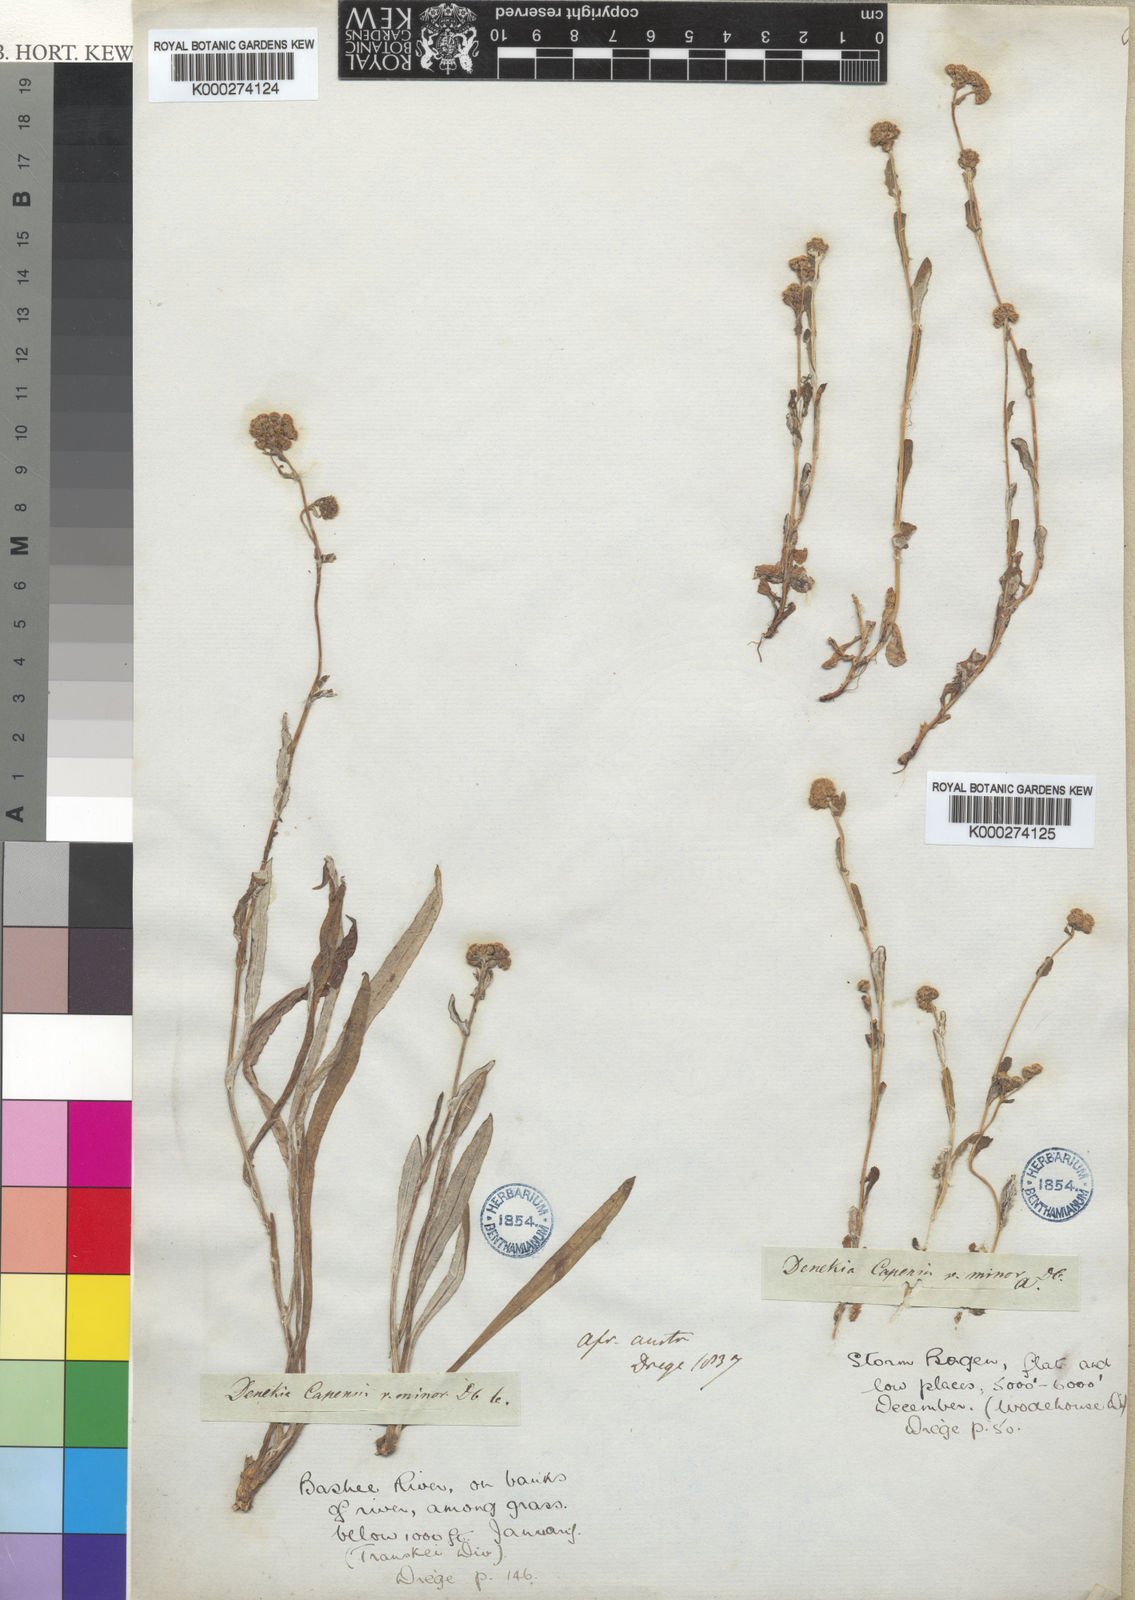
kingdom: Plantae
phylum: Tracheophyta
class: Magnoliopsida
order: Asterales
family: Asteraceae
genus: Denekia
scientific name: Denekia capensis
